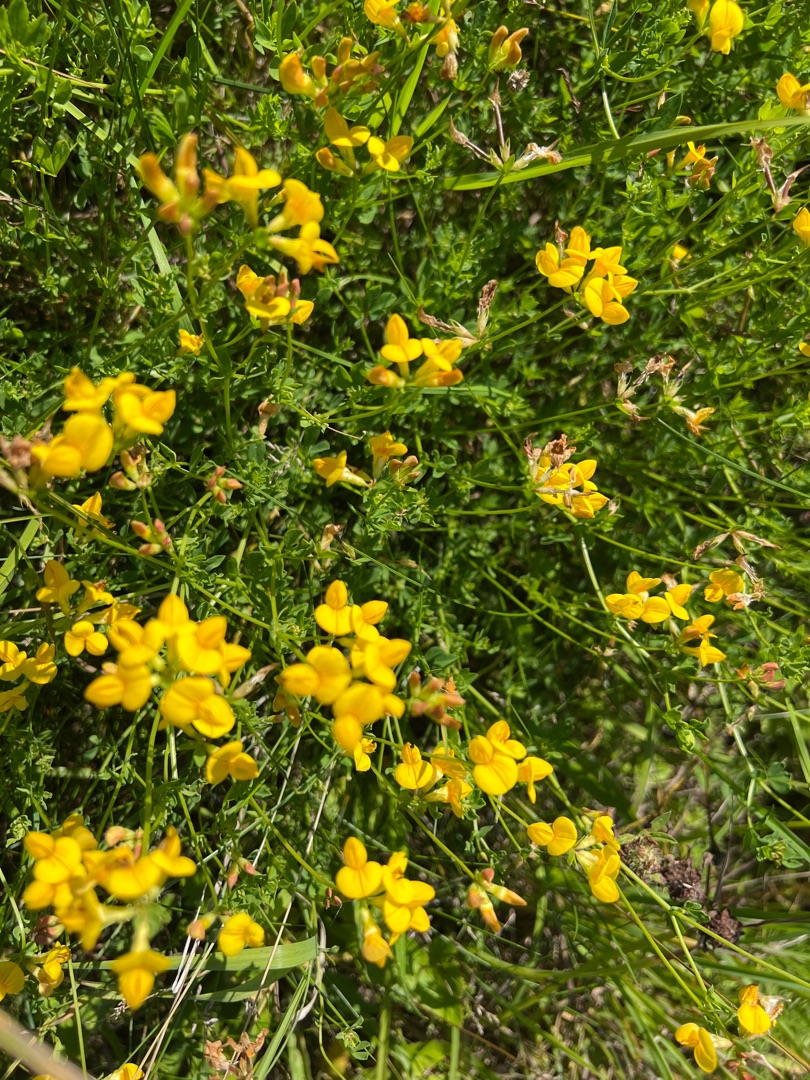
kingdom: Plantae
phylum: Tracheophyta
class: Magnoliopsida
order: Fabales
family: Fabaceae
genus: Lotus
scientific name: Lotus corniculatus
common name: Almindelig kællingetand
